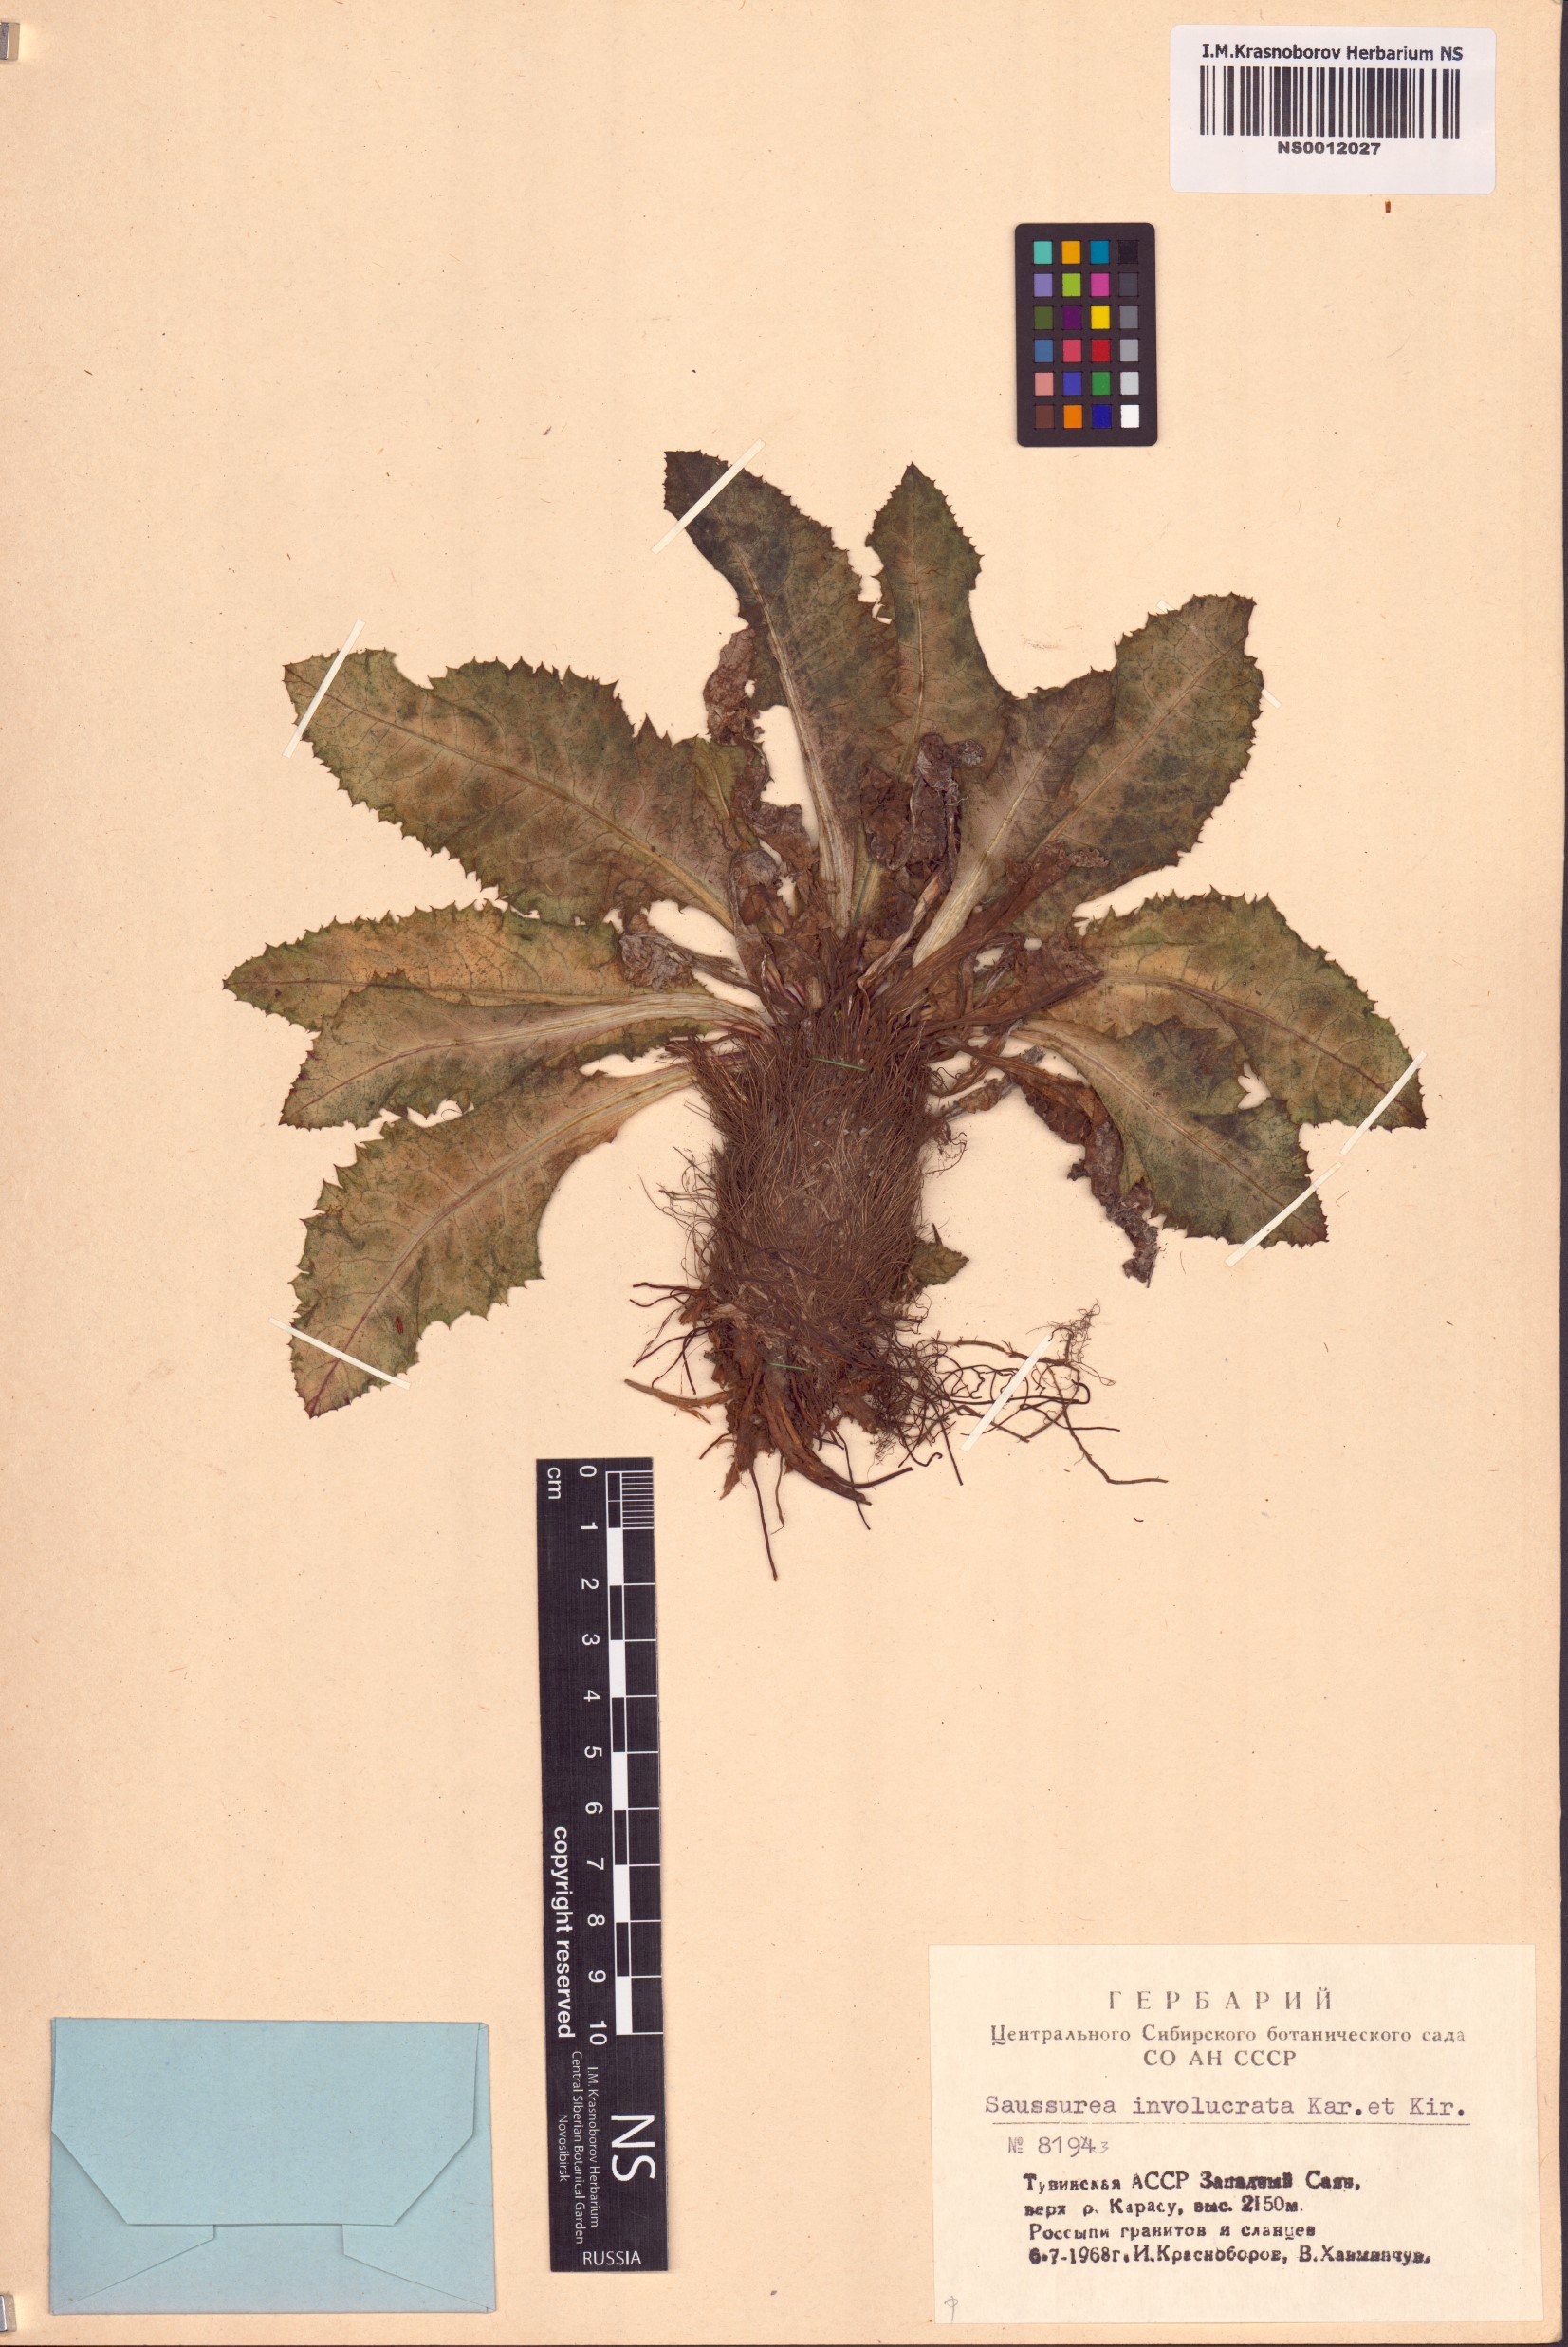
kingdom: Plantae
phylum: Tracheophyta
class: Magnoliopsida
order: Asterales
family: Asteraceae
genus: Saussurea
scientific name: Saussurea involucrata
